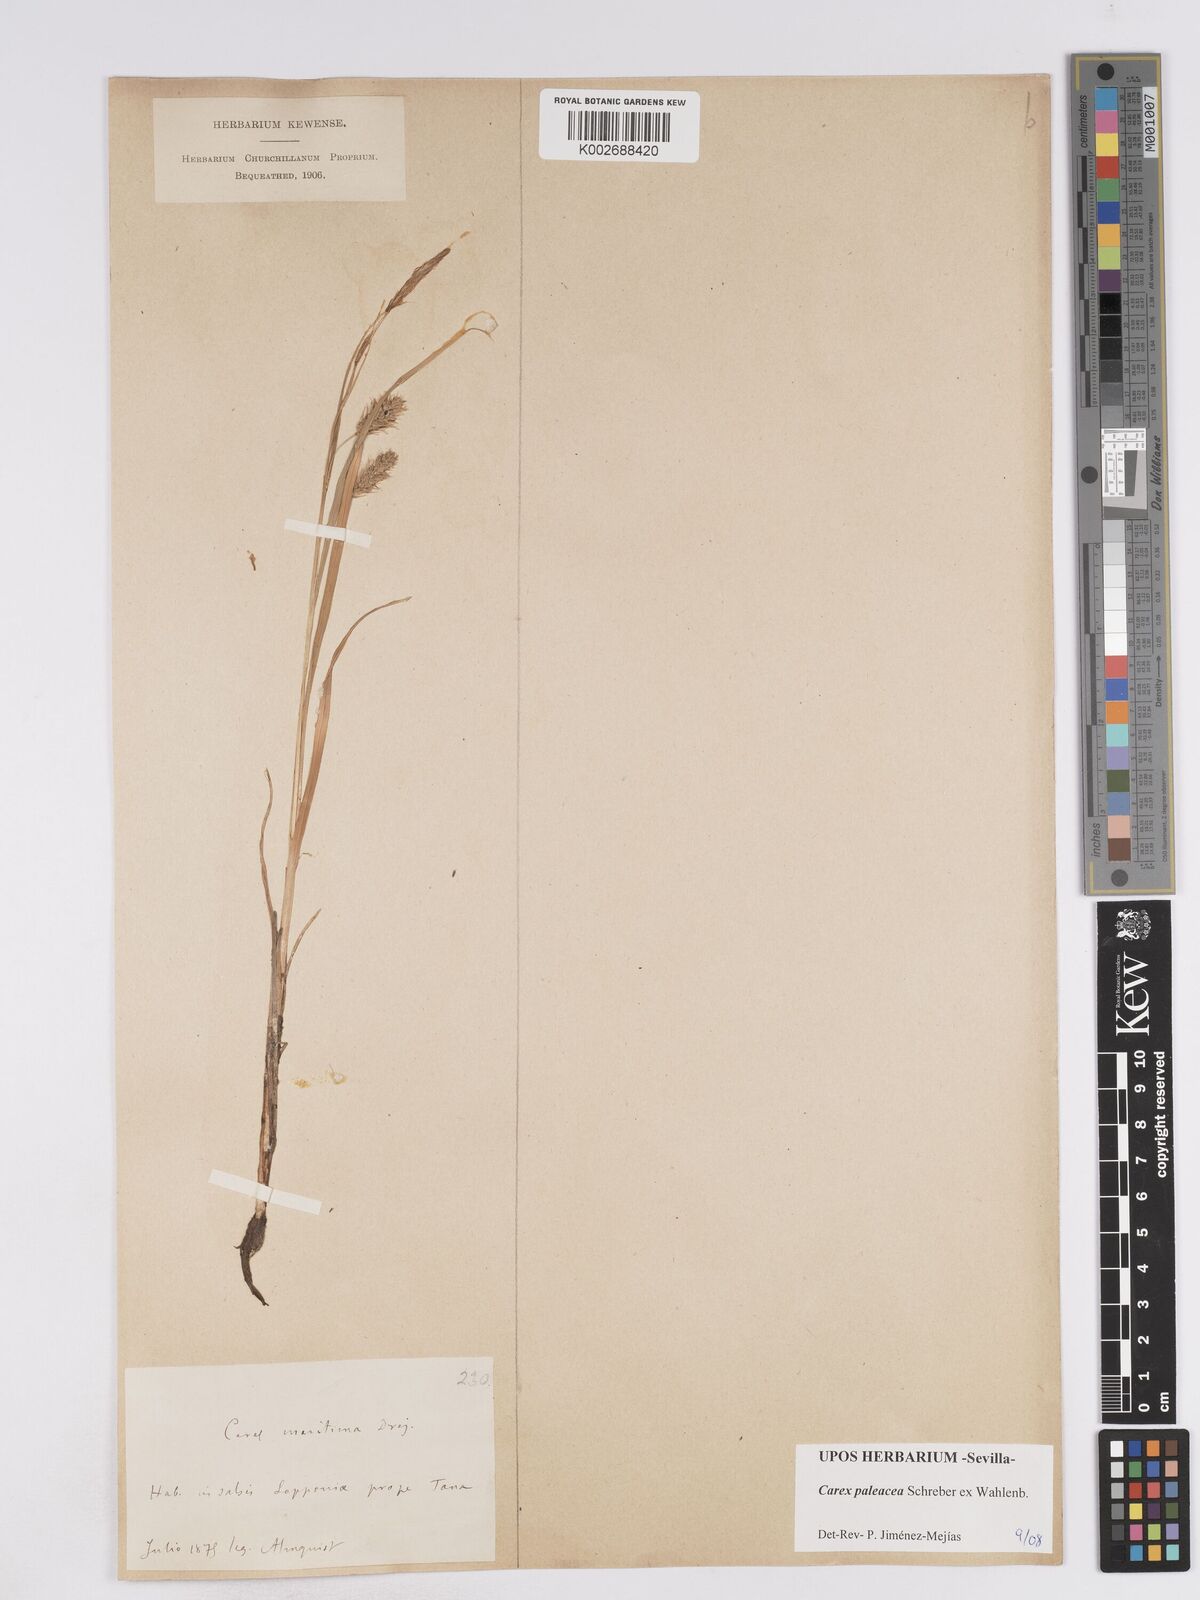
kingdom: Plantae
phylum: Tracheophyta
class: Liliopsida
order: Poales
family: Cyperaceae
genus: Carex
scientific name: Carex paleacea
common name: Chaffy sedge
